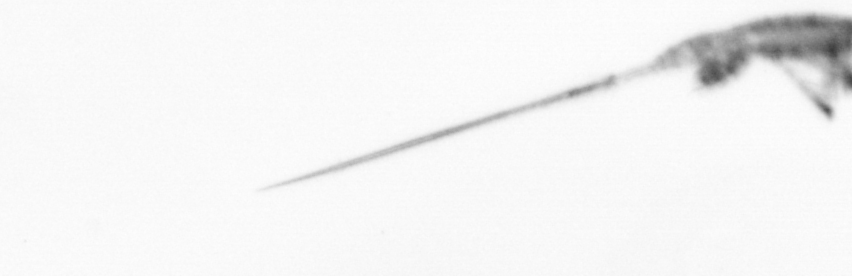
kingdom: Animalia
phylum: Arthropoda
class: Copepoda
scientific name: Copepoda
